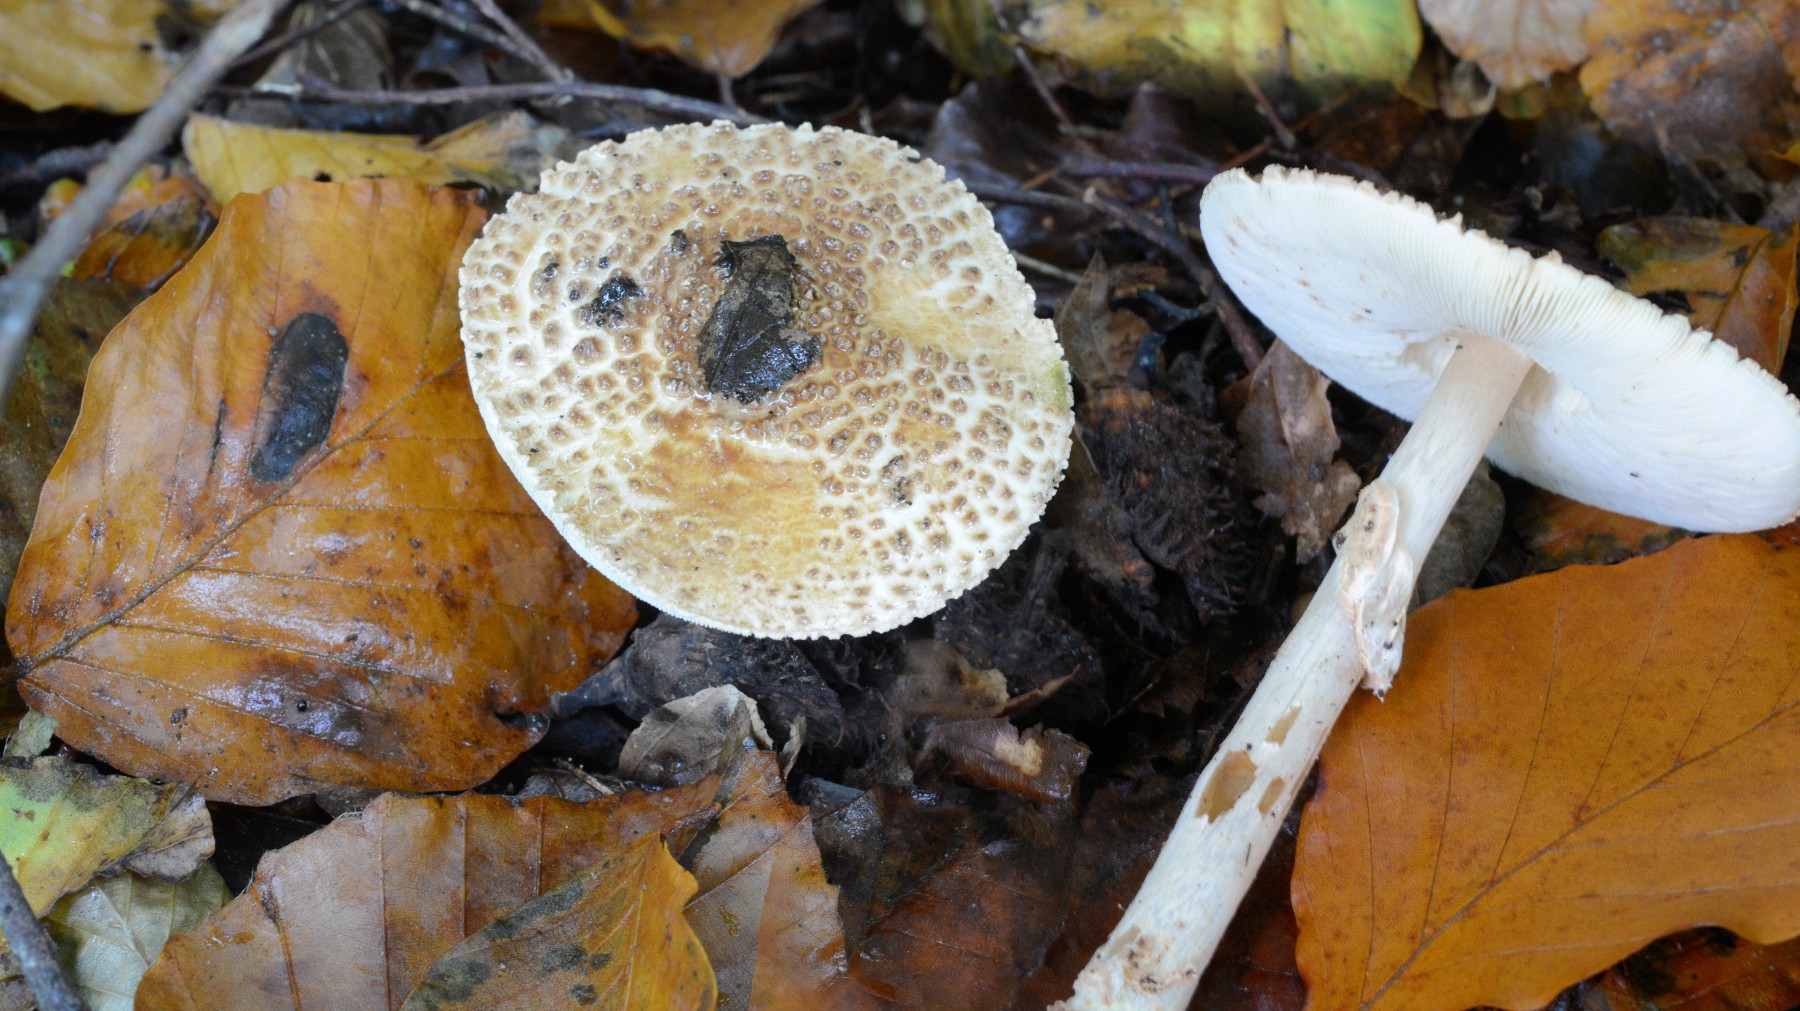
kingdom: Fungi
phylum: Basidiomycota
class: Agaricomycetes
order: Agaricales
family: Agaricaceae
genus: Echinoderma
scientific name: Echinoderma asperum
